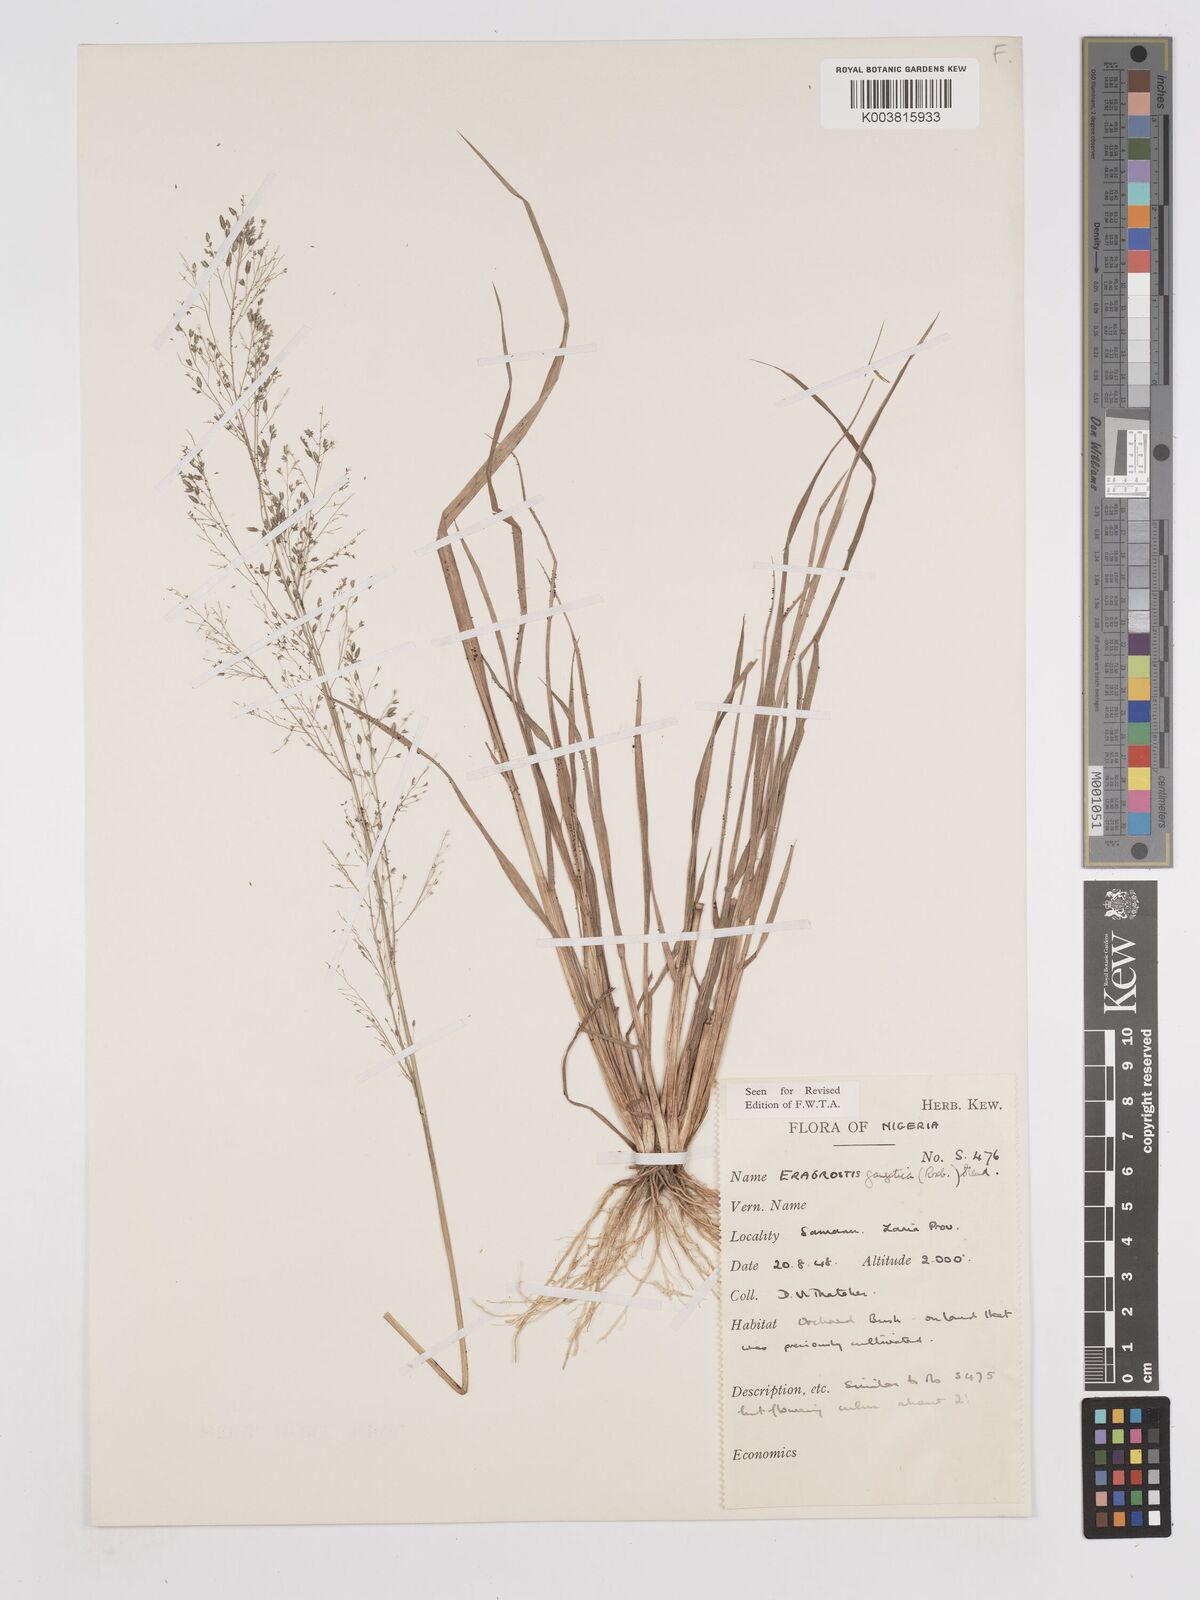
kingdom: Plantae
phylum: Tracheophyta
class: Liliopsida
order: Poales
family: Poaceae
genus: Eragrostis
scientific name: Eragrostis gangetica
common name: Slimflower lovegrass
